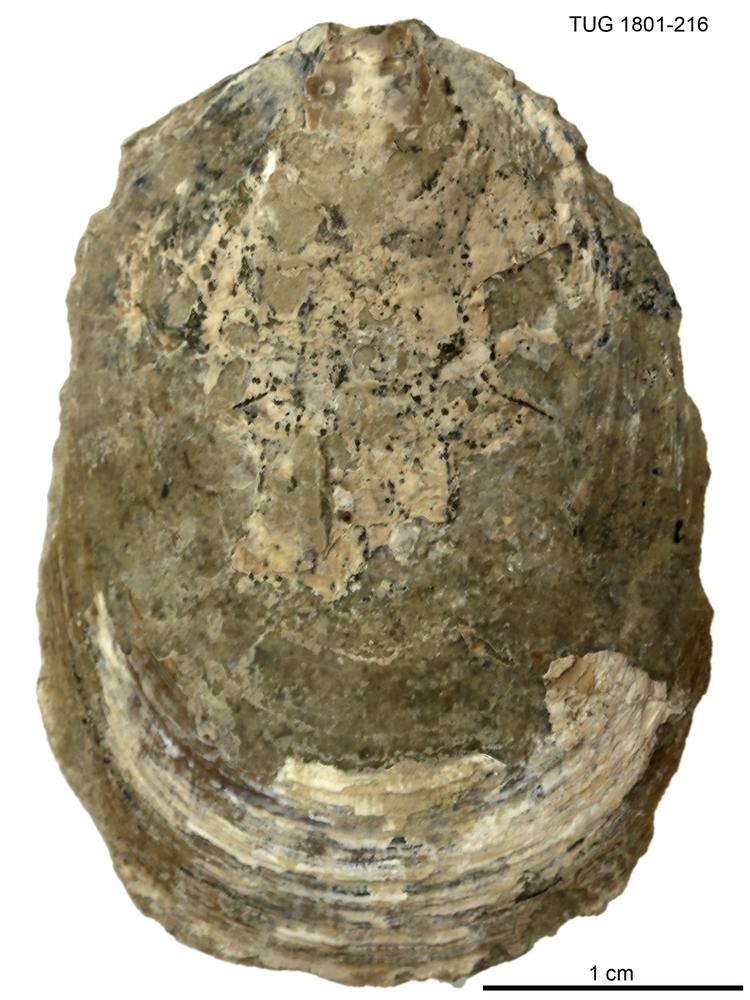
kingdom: Animalia
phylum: Brachiopoda
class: Lingulata
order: Lingulida
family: Pseudolingulidae
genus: Pseudolingula
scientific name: Pseudolingula Crania quadrata
